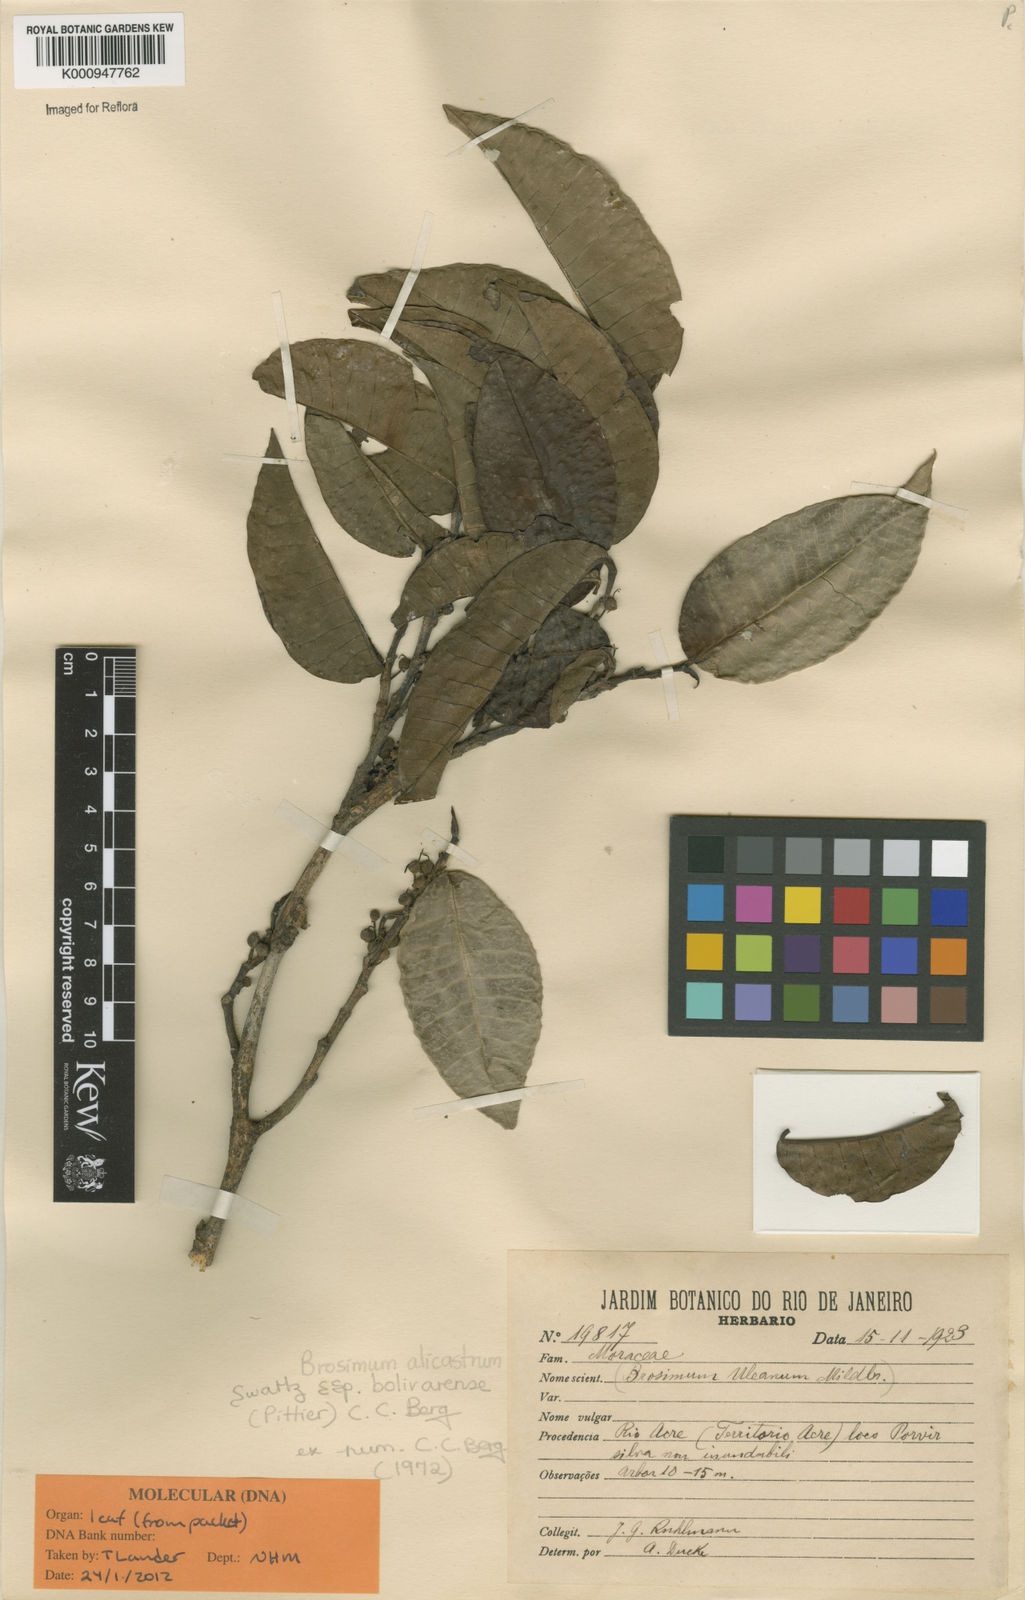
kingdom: Plantae
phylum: Tracheophyta
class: Magnoliopsida
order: Rosales
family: Moraceae
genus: Brosimum
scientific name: Brosimum alicastrum
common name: Breadnut
